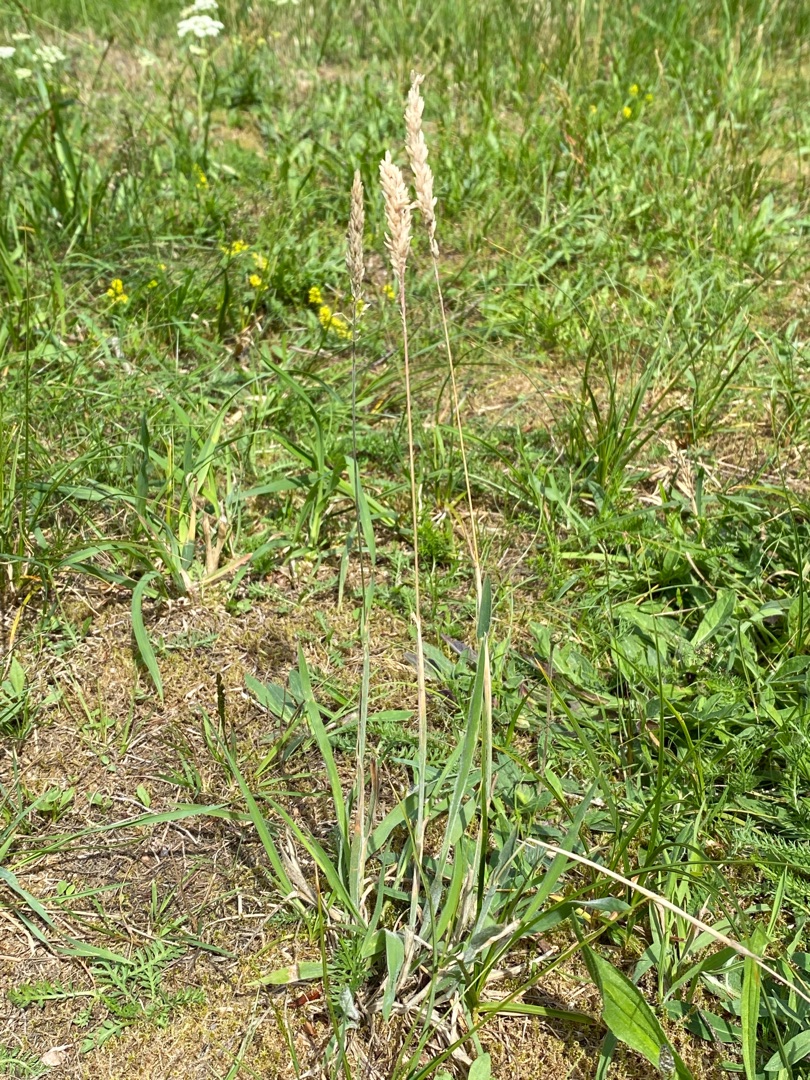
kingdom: Plantae
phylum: Tracheophyta
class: Liliopsida
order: Poales
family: Poaceae
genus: Holcus
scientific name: Holcus lanatus
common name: Fløjlsgræs
